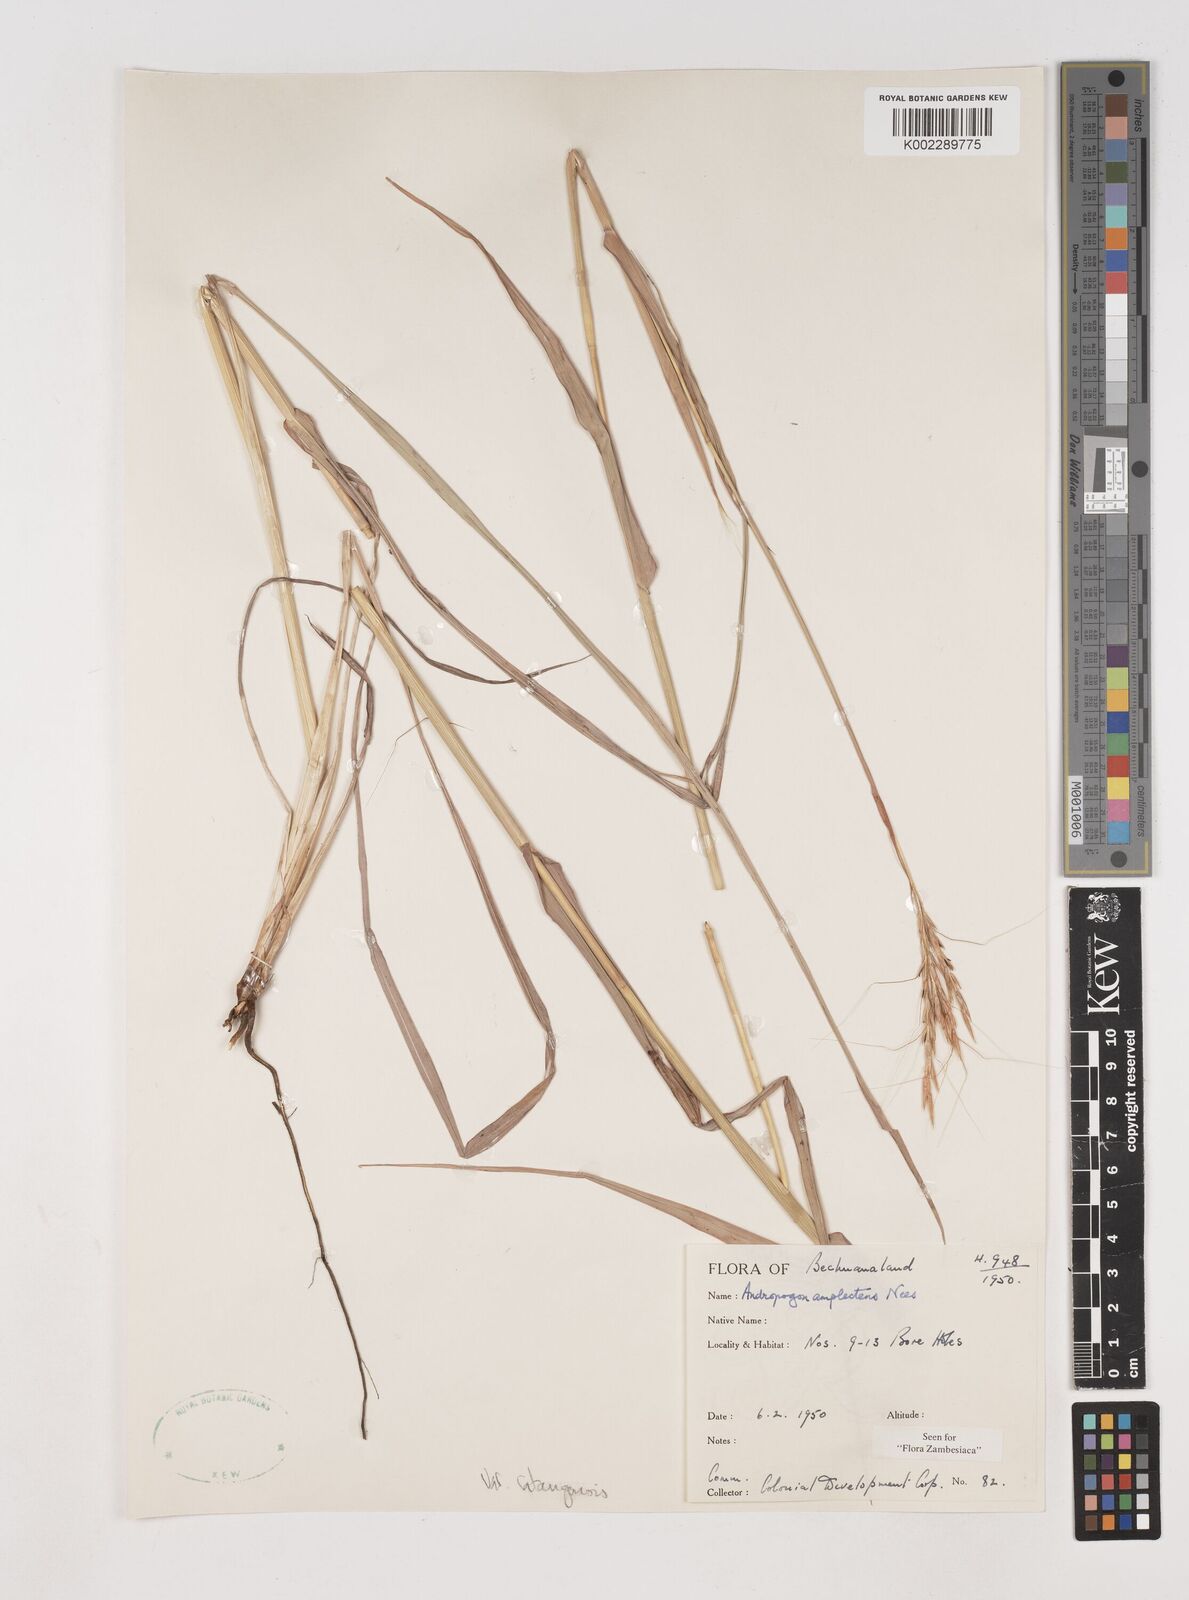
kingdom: Plantae
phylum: Tracheophyta
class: Liliopsida
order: Poales
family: Poaceae
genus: Diheteropogon
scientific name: Diheteropogon amplectens
